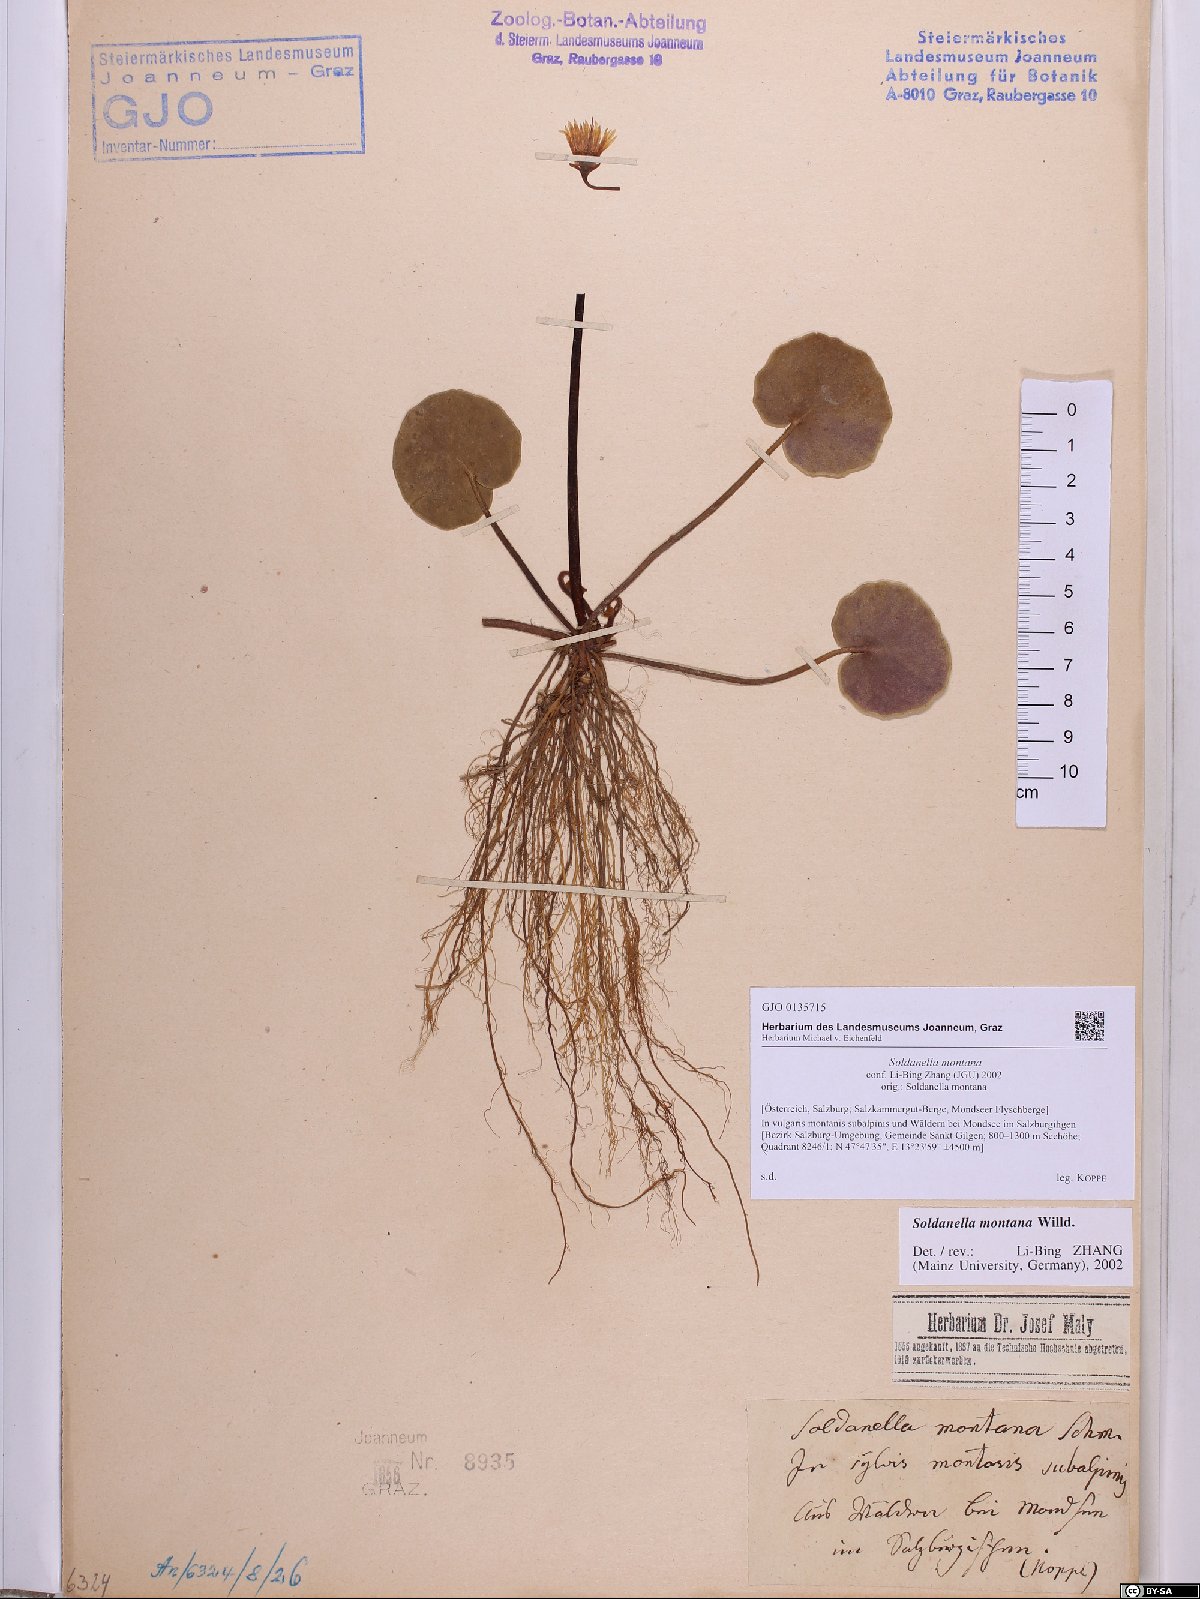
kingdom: Plantae
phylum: Tracheophyta
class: Magnoliopsida
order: Ericales
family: Primulaceae
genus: Soldanella
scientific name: Soldanella montana
